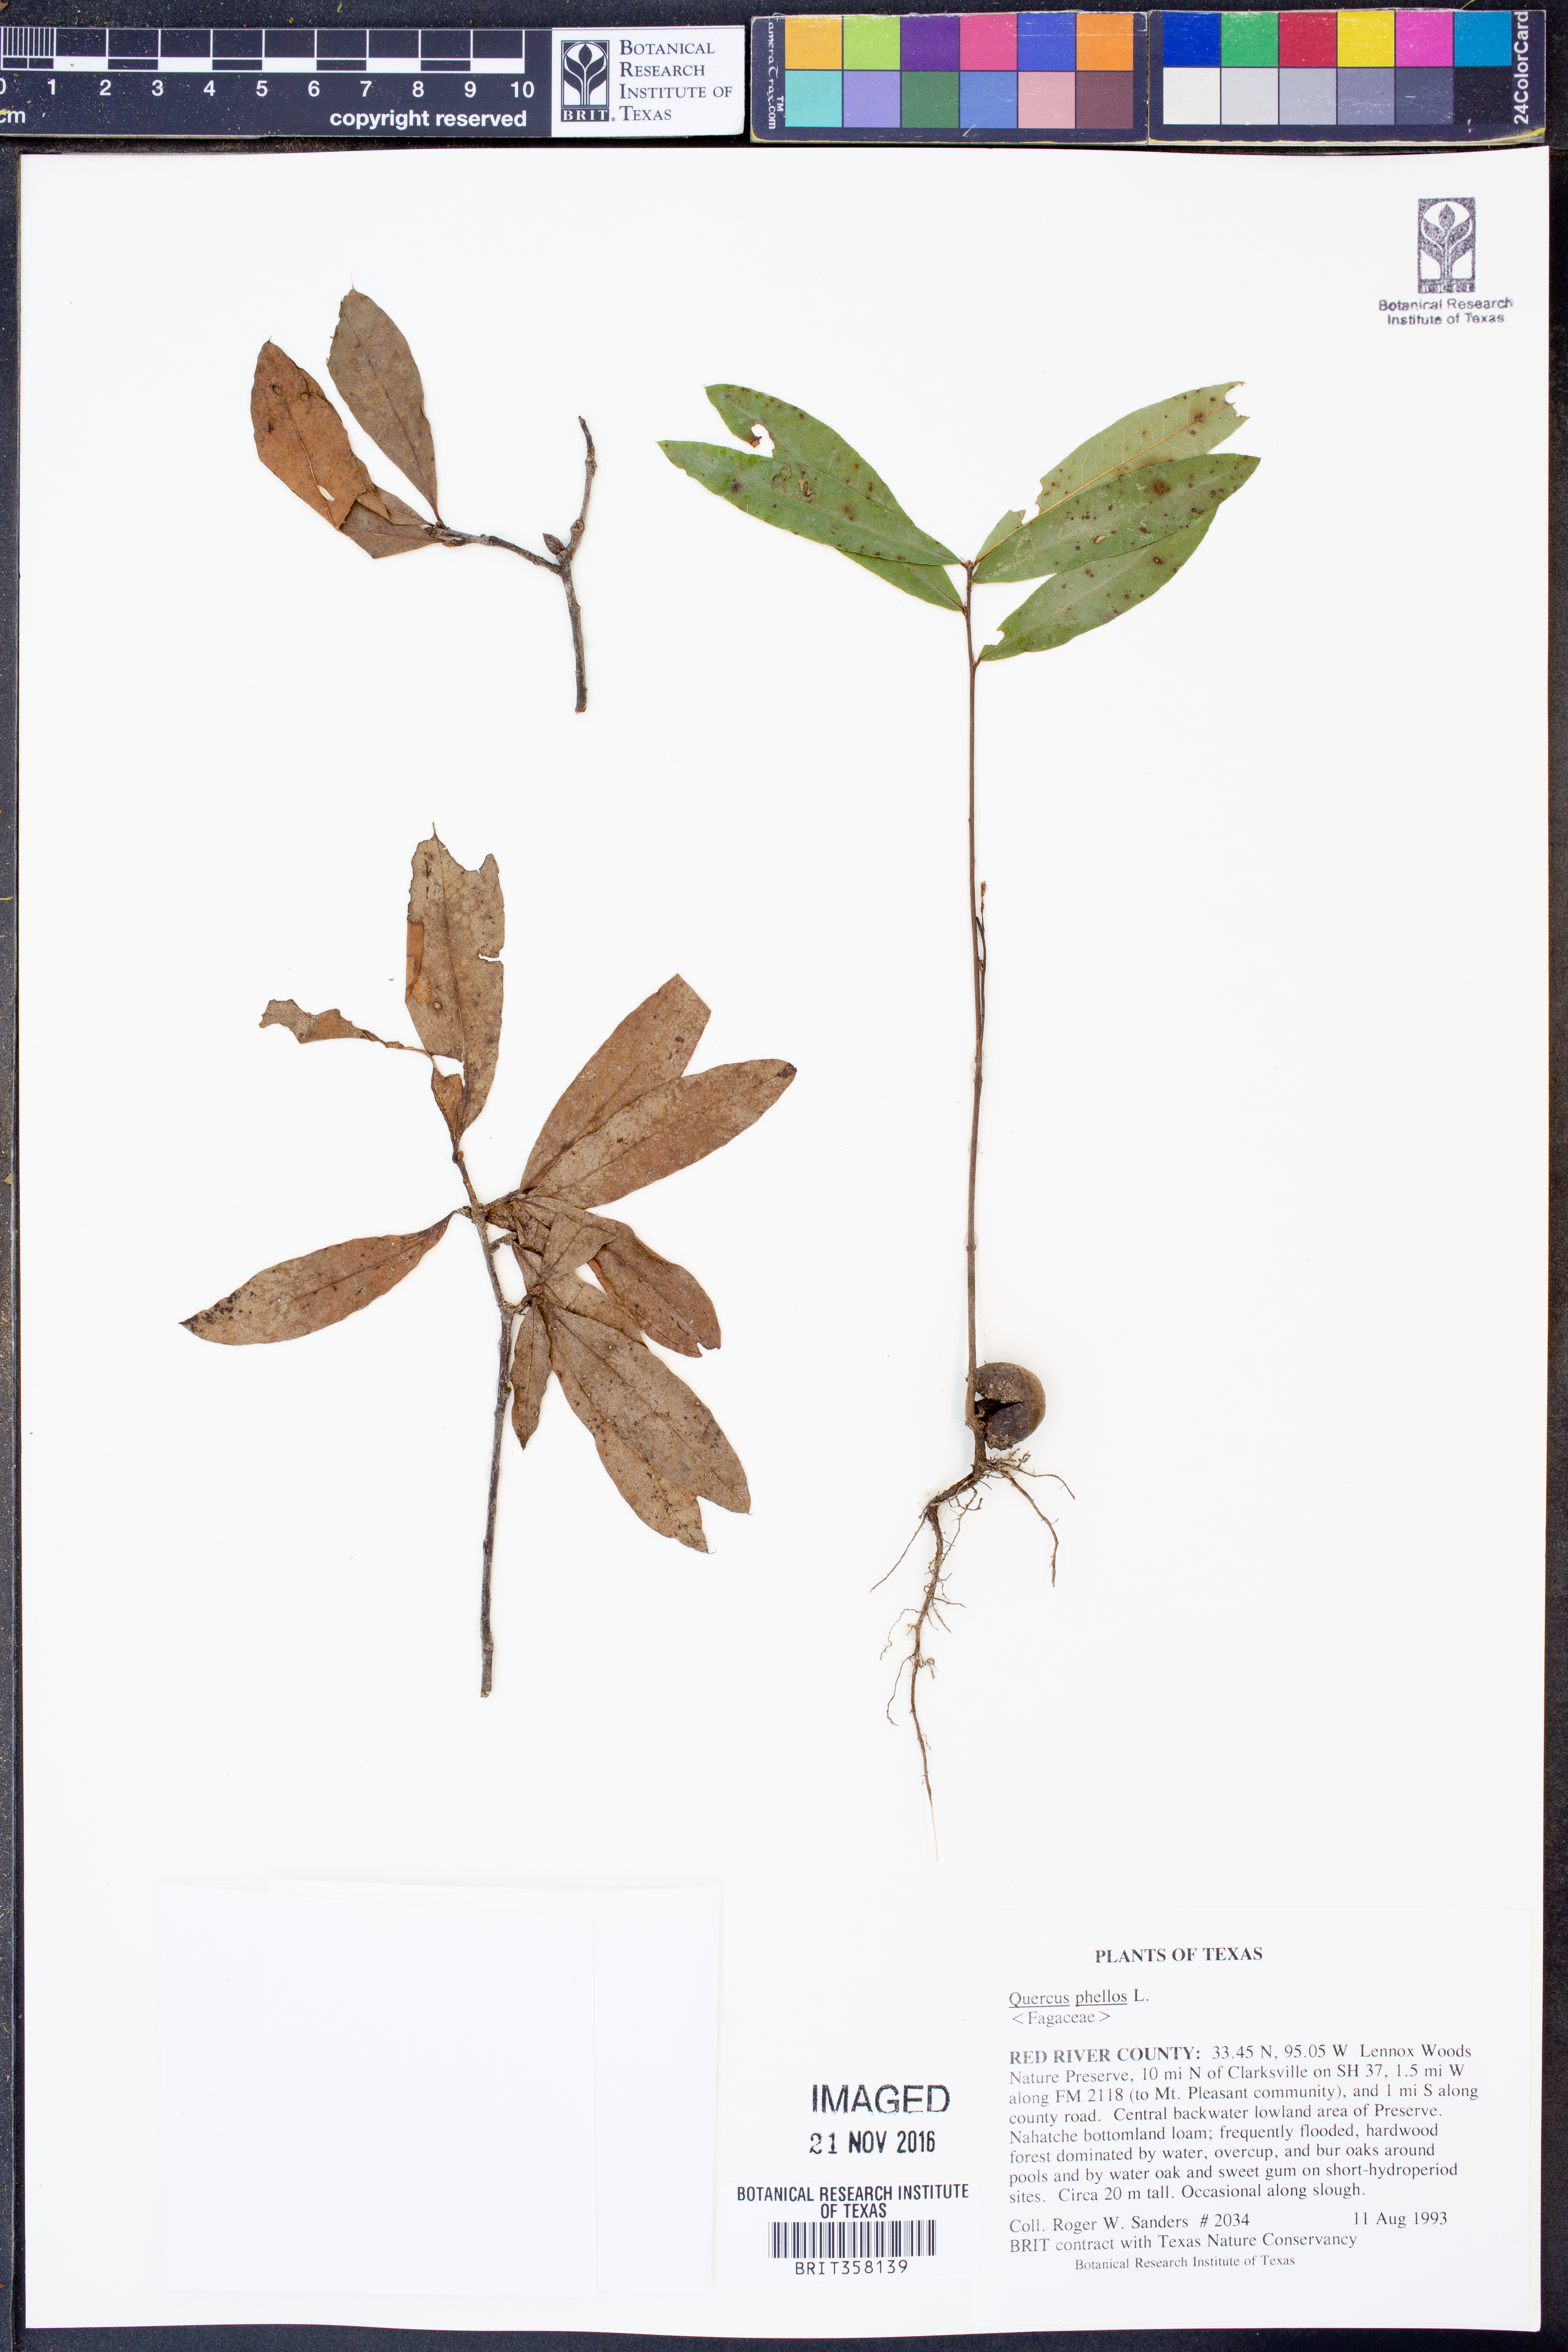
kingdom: Plantae
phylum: Tracheophyta
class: Magnoliopsida
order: Fagales
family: Fagaceae
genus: Quercus
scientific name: Quercus phellos
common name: Willow oak
